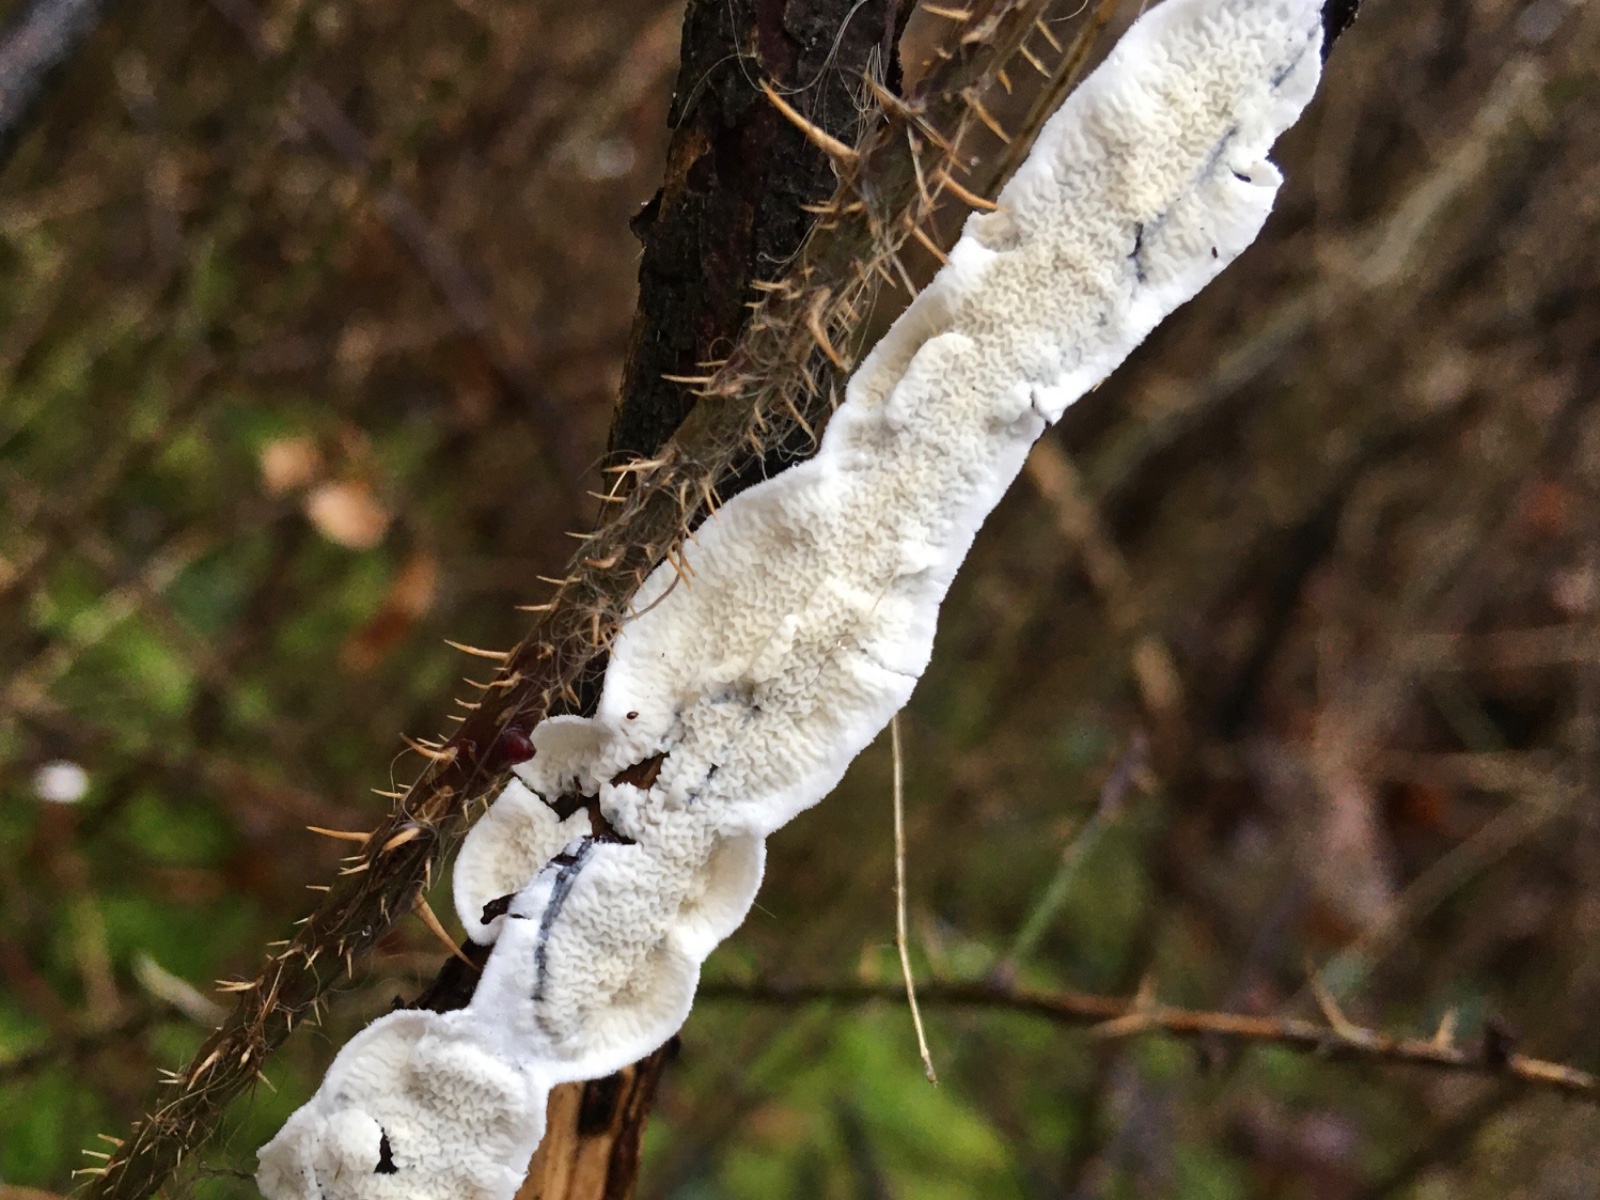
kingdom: Fungi
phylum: Basidiomycota
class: Agaricomycetes
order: Polyporales
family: Irpicaceae
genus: Byssomerulius
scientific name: Byssomerulius corium
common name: læder-åresvamp
